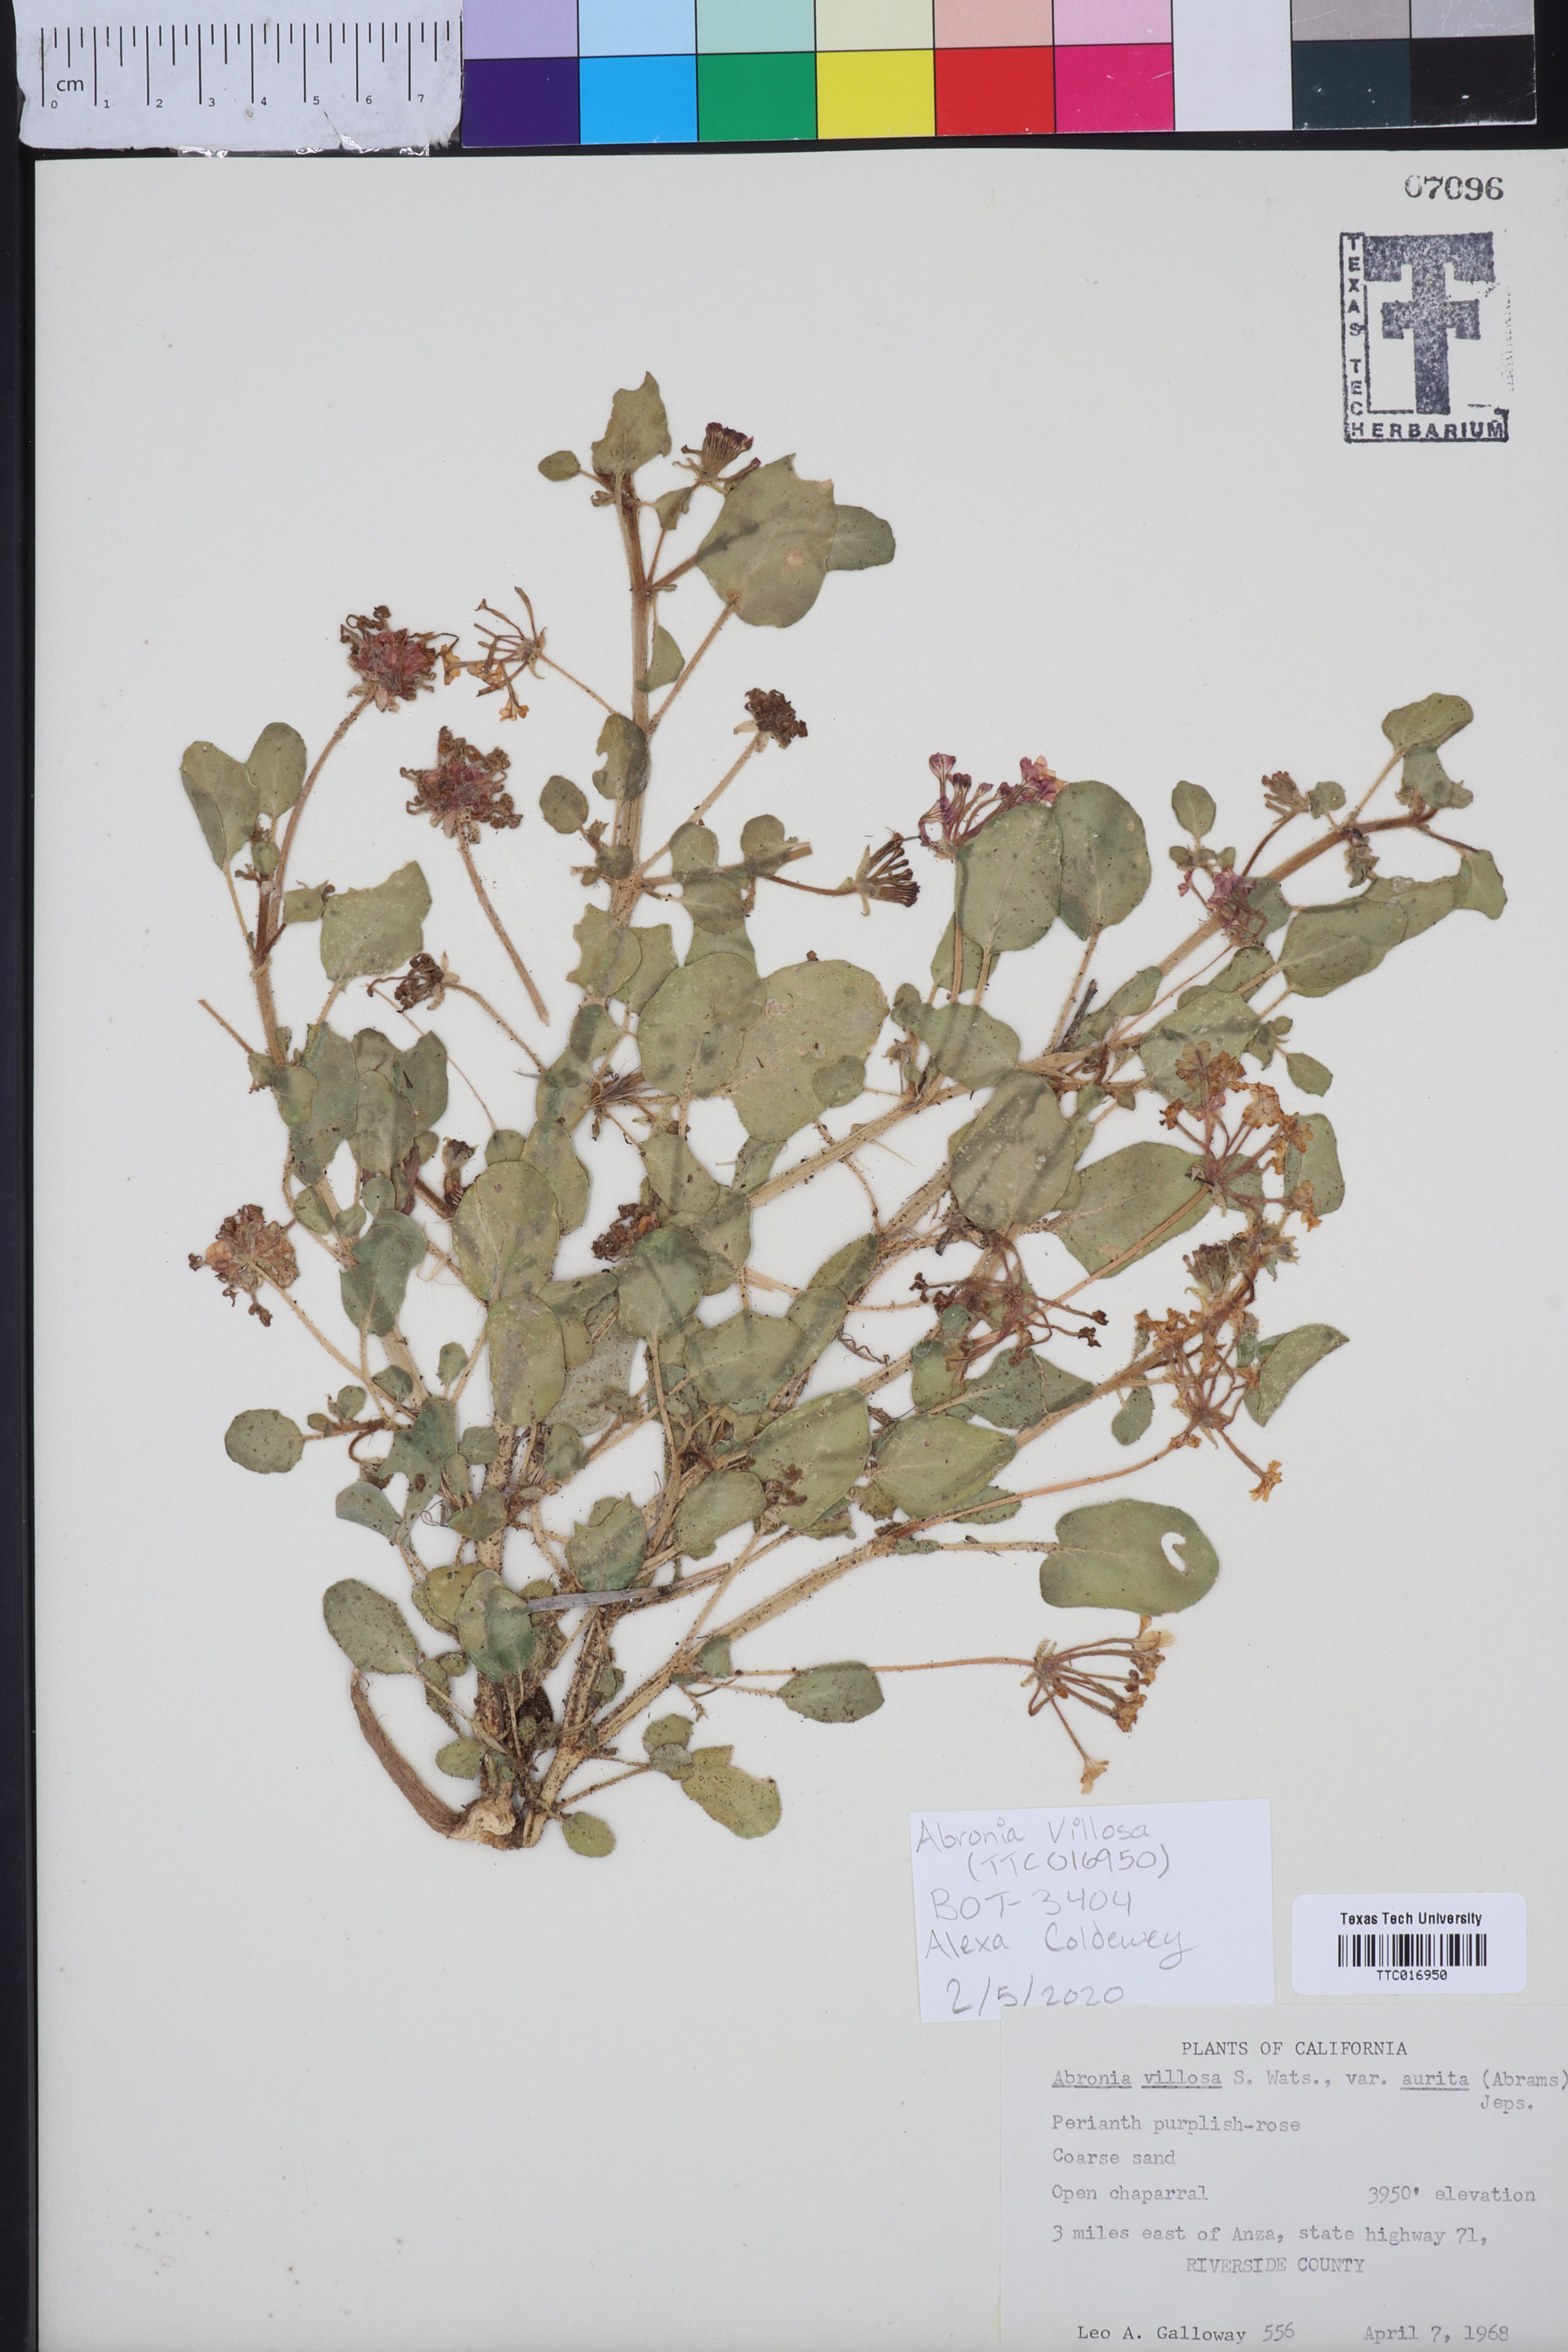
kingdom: Plantae
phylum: Tracheophyta
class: Magnoliopsida
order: Caryophyllales
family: Nyctaginaceae
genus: Abronia
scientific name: Abronia villosa
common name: Desert sand-verbena
